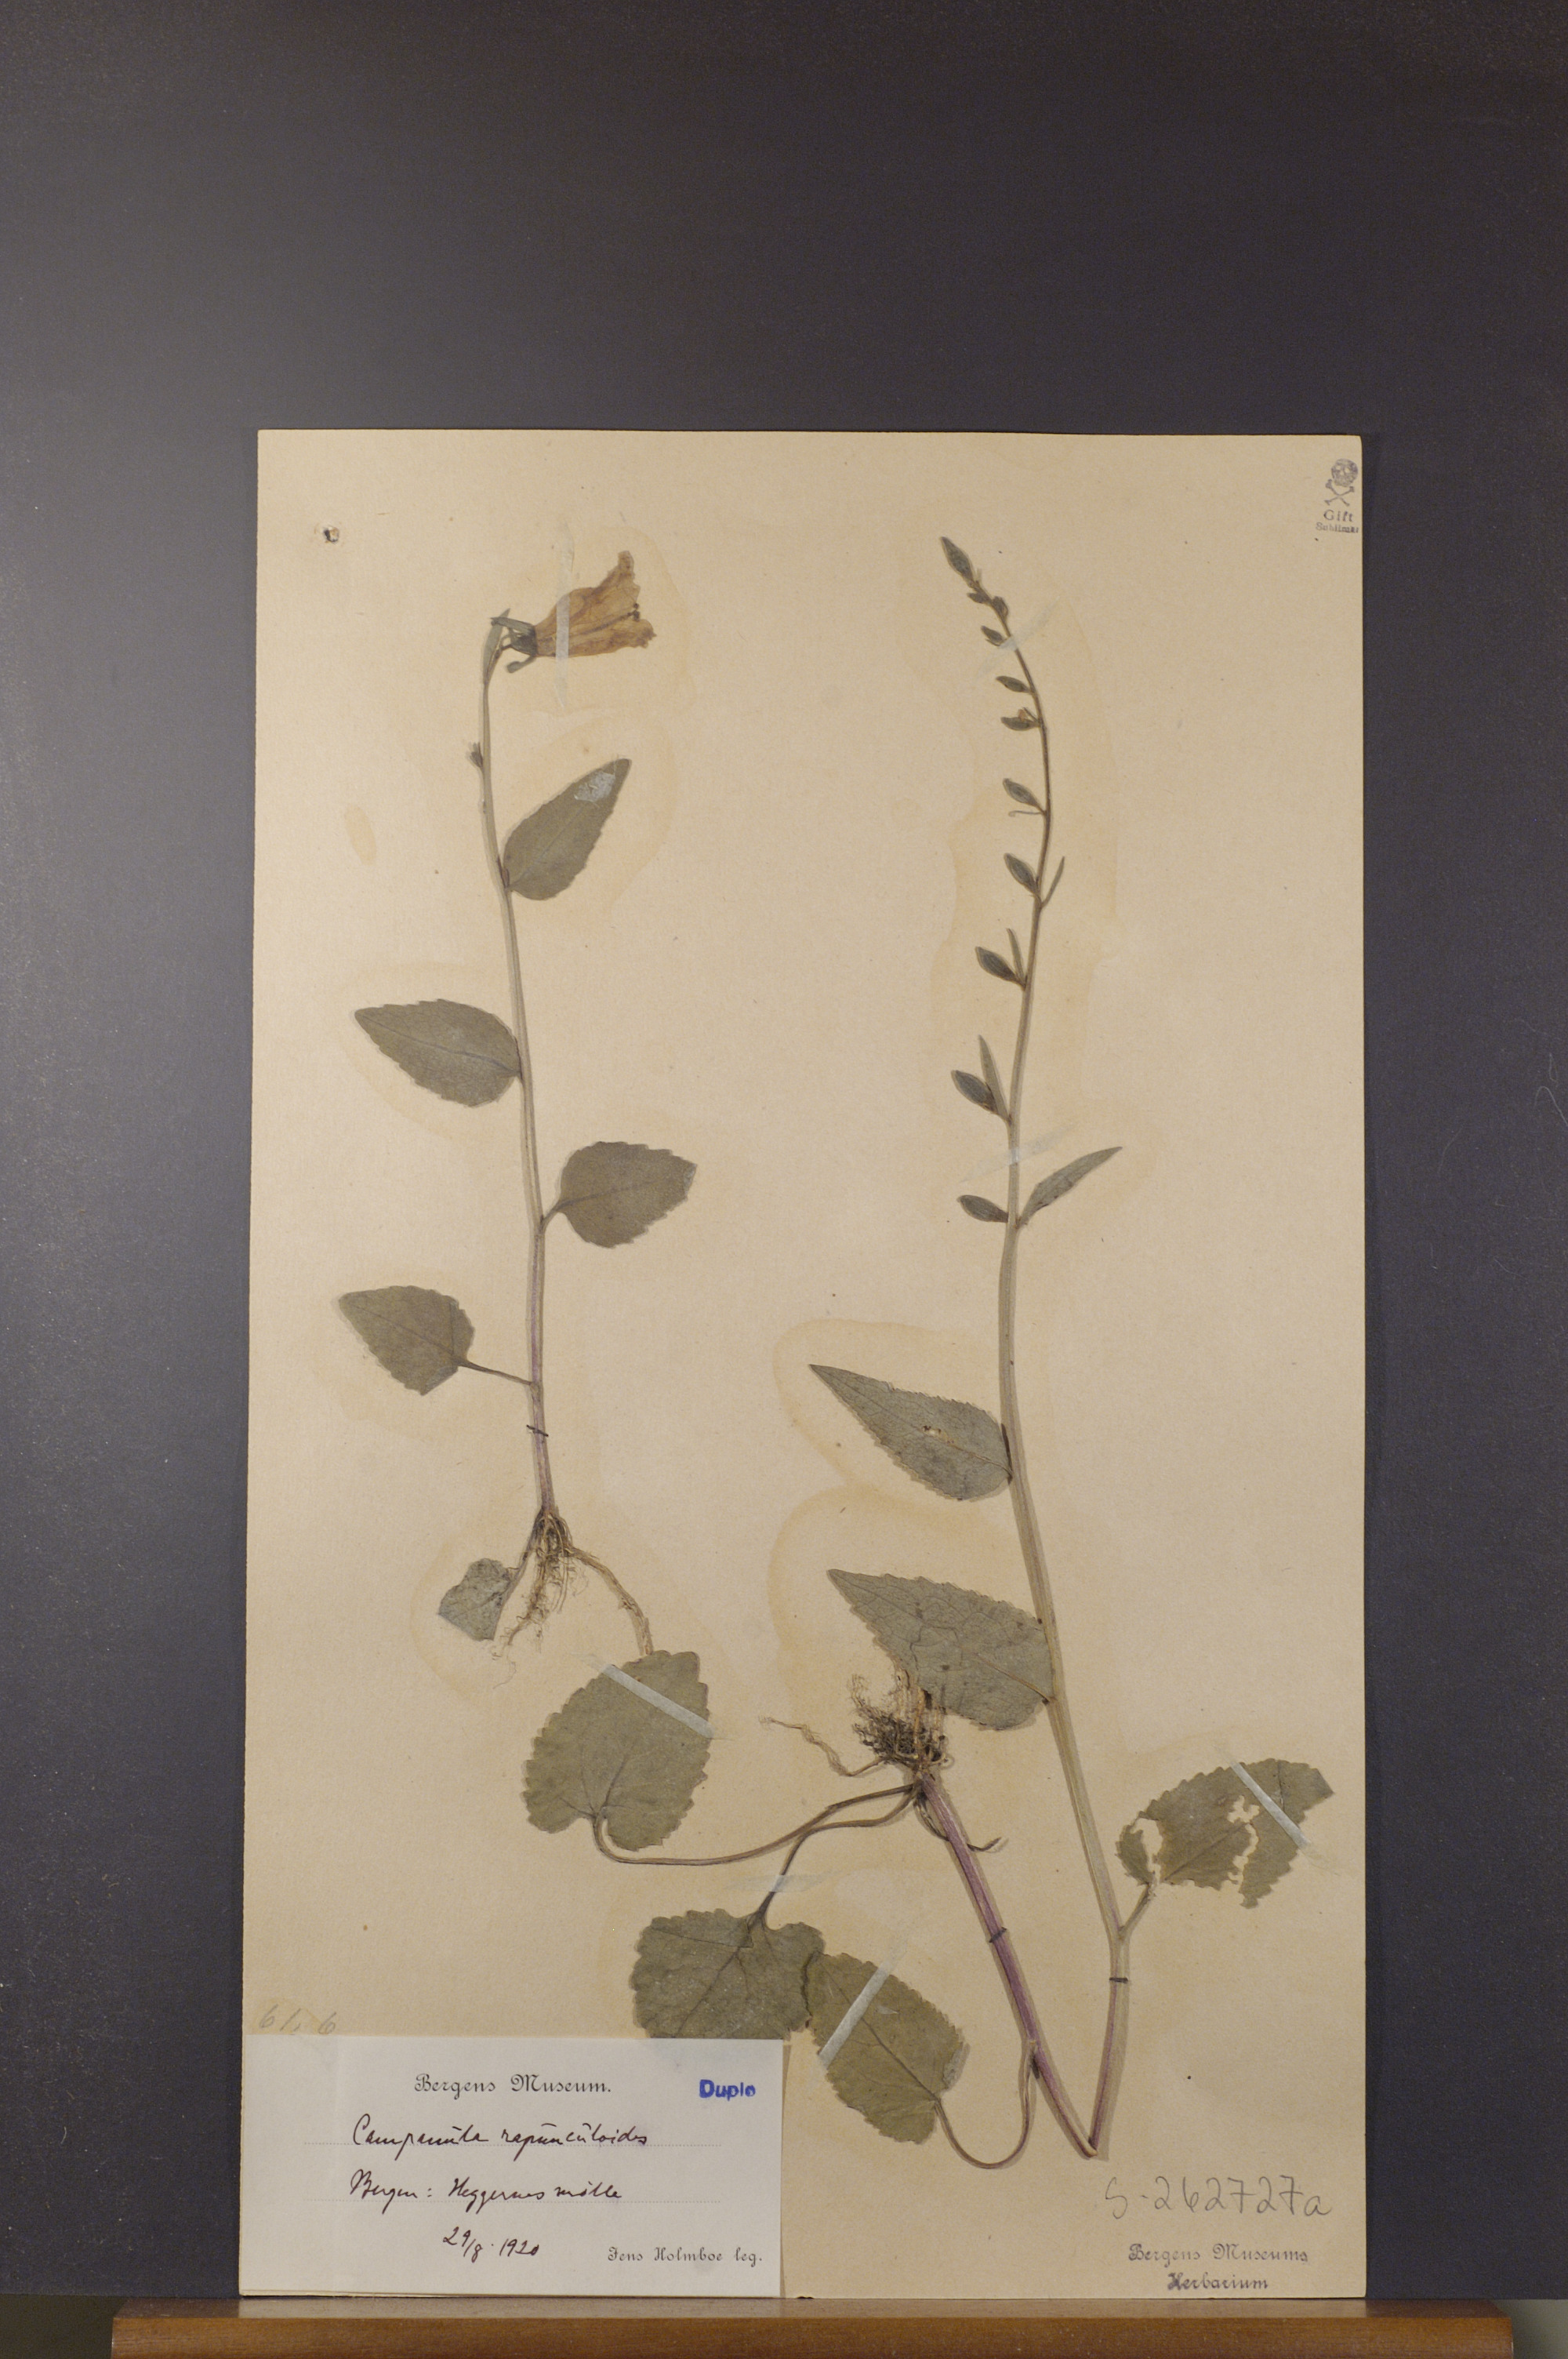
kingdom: Plantae
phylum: Tracheophyta
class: Magnoliopsida
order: Asterales
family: Campanulaceae
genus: Campanula
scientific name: Campanula rapunculoides
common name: Creeping bellflower
